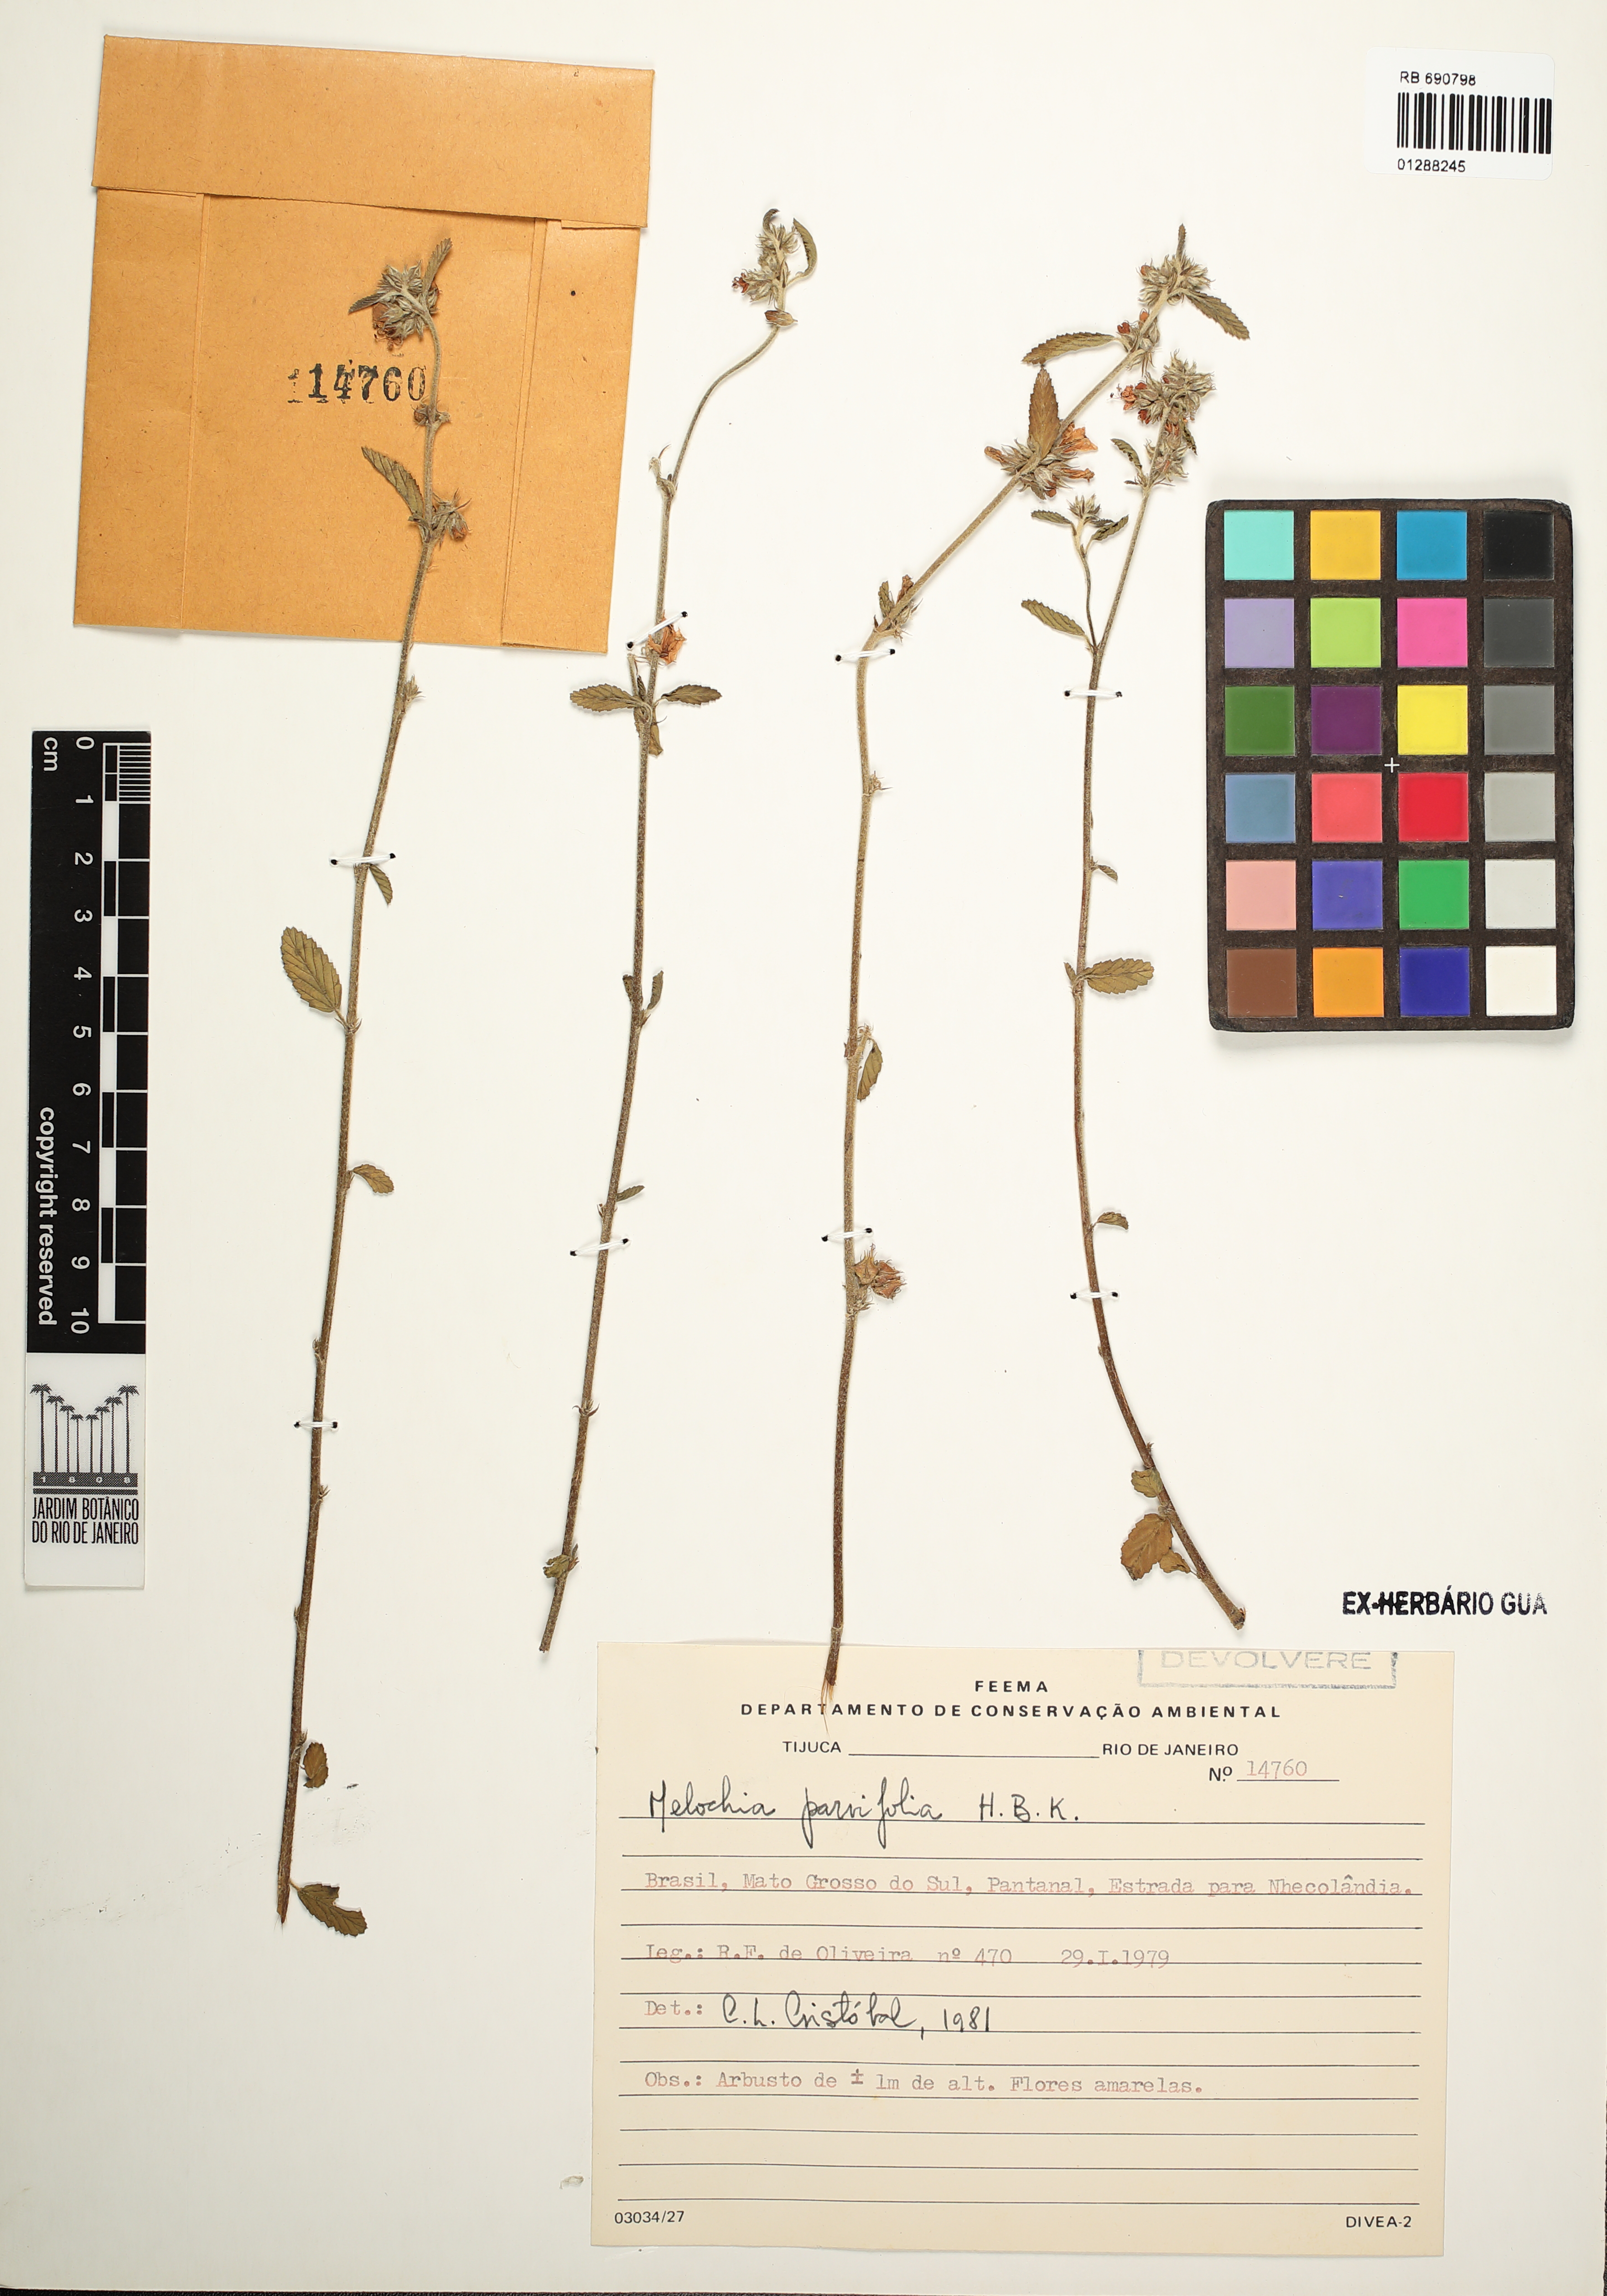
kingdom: Plantae
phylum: Tracheophyta
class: Magnoliopsida
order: Malvales
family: Malvaceae
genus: Melochia
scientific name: Melochia parvifolia
